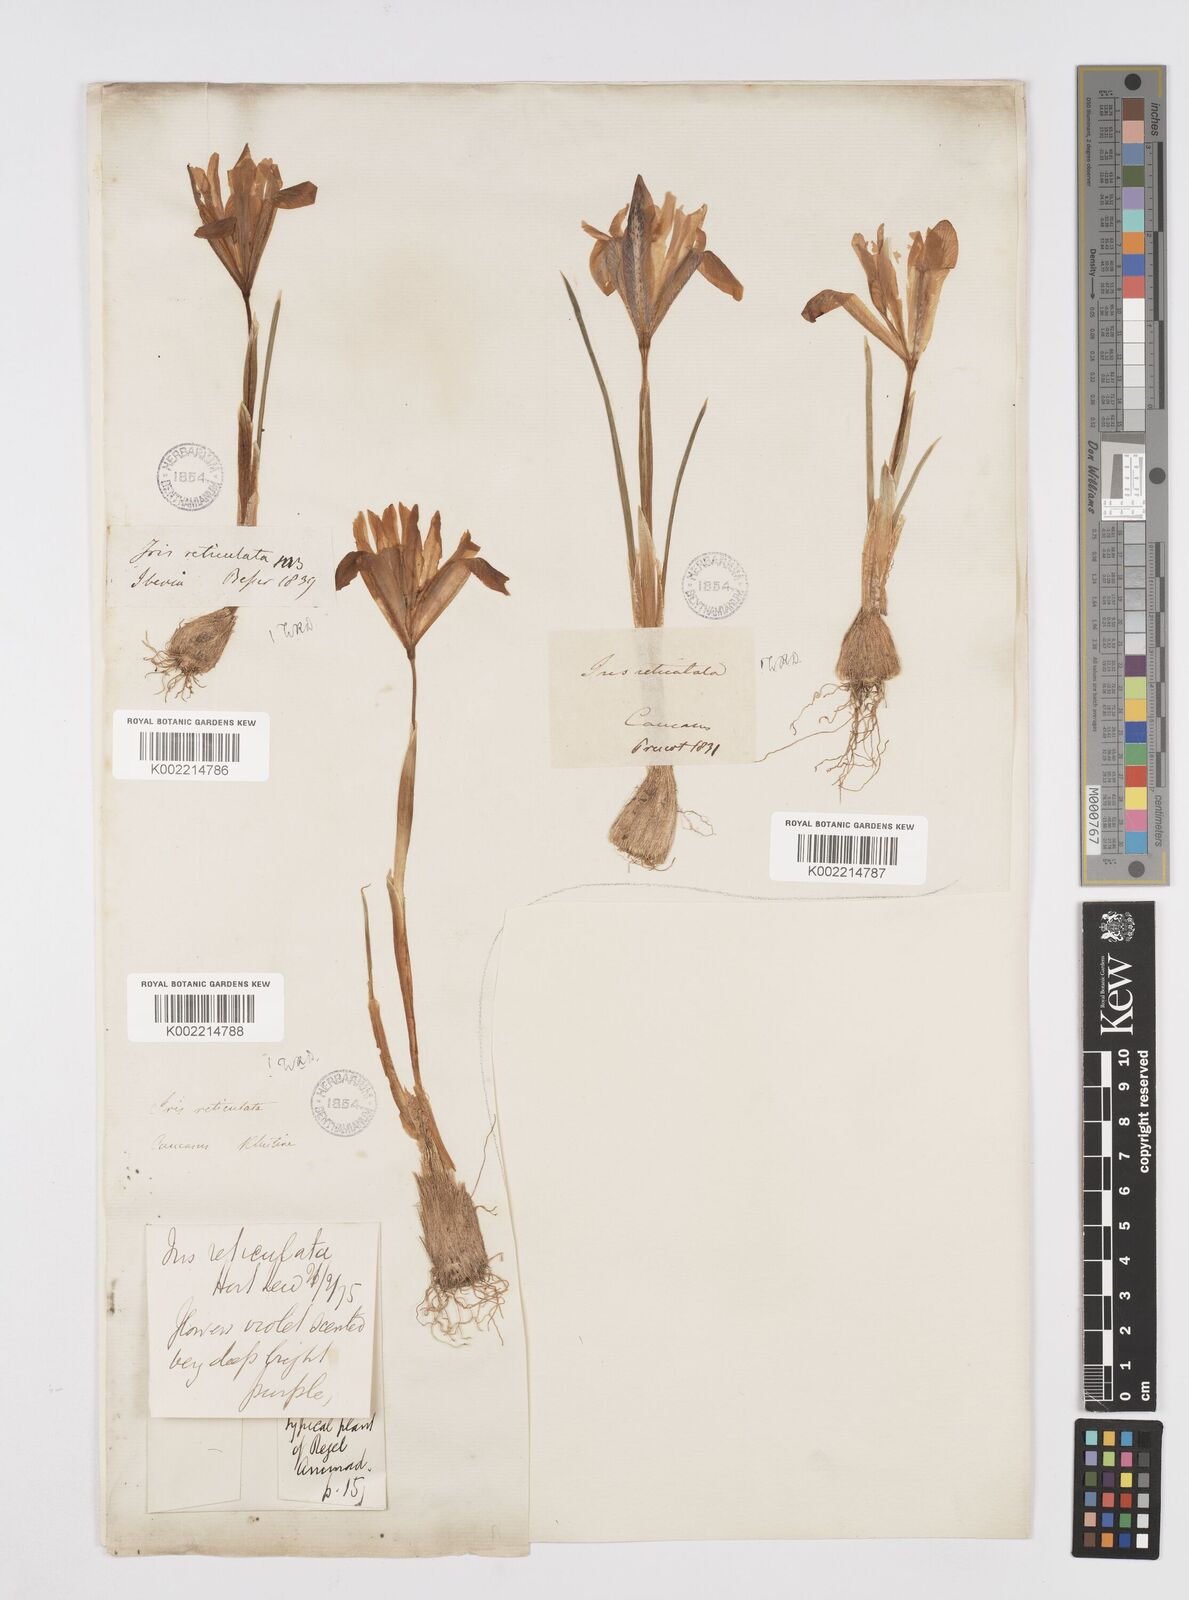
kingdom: Plantae
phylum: Tracheophyta
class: Liliopsida
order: Asparagales
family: Iridaceae
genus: Iris
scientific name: Iris reticulata
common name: Netted iris
